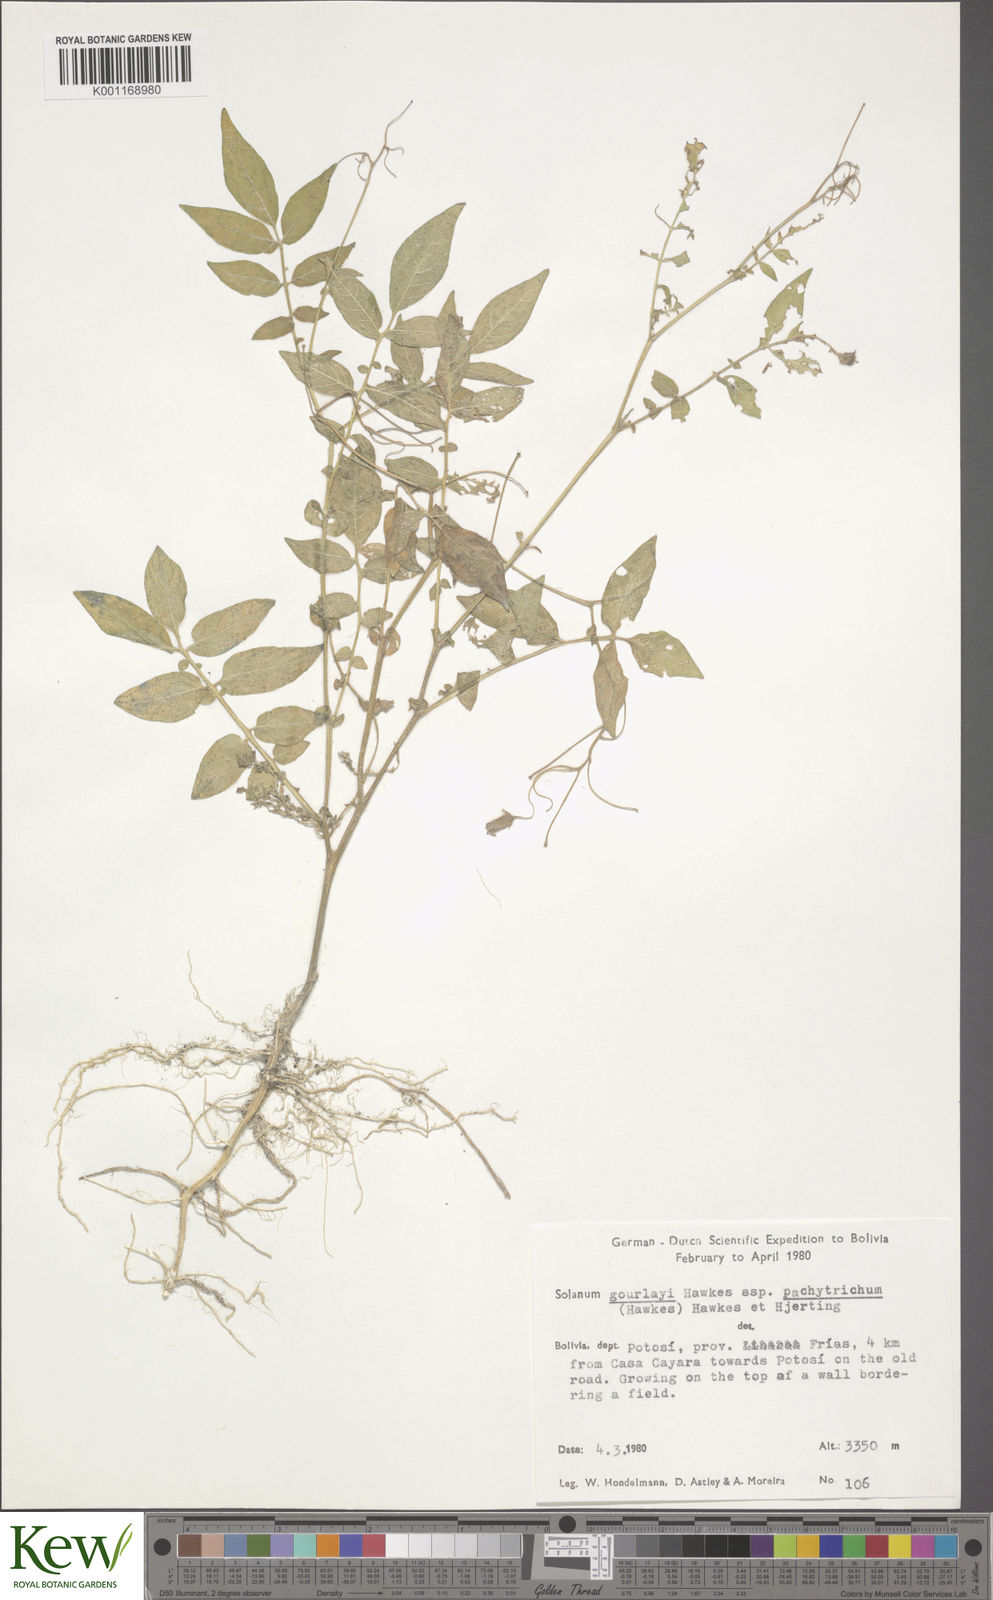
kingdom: Plantae
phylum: Tracheophyta
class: Magnoliopsida
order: Solanales
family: Solanaceae
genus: Solanum
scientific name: Solanum brevicaule
